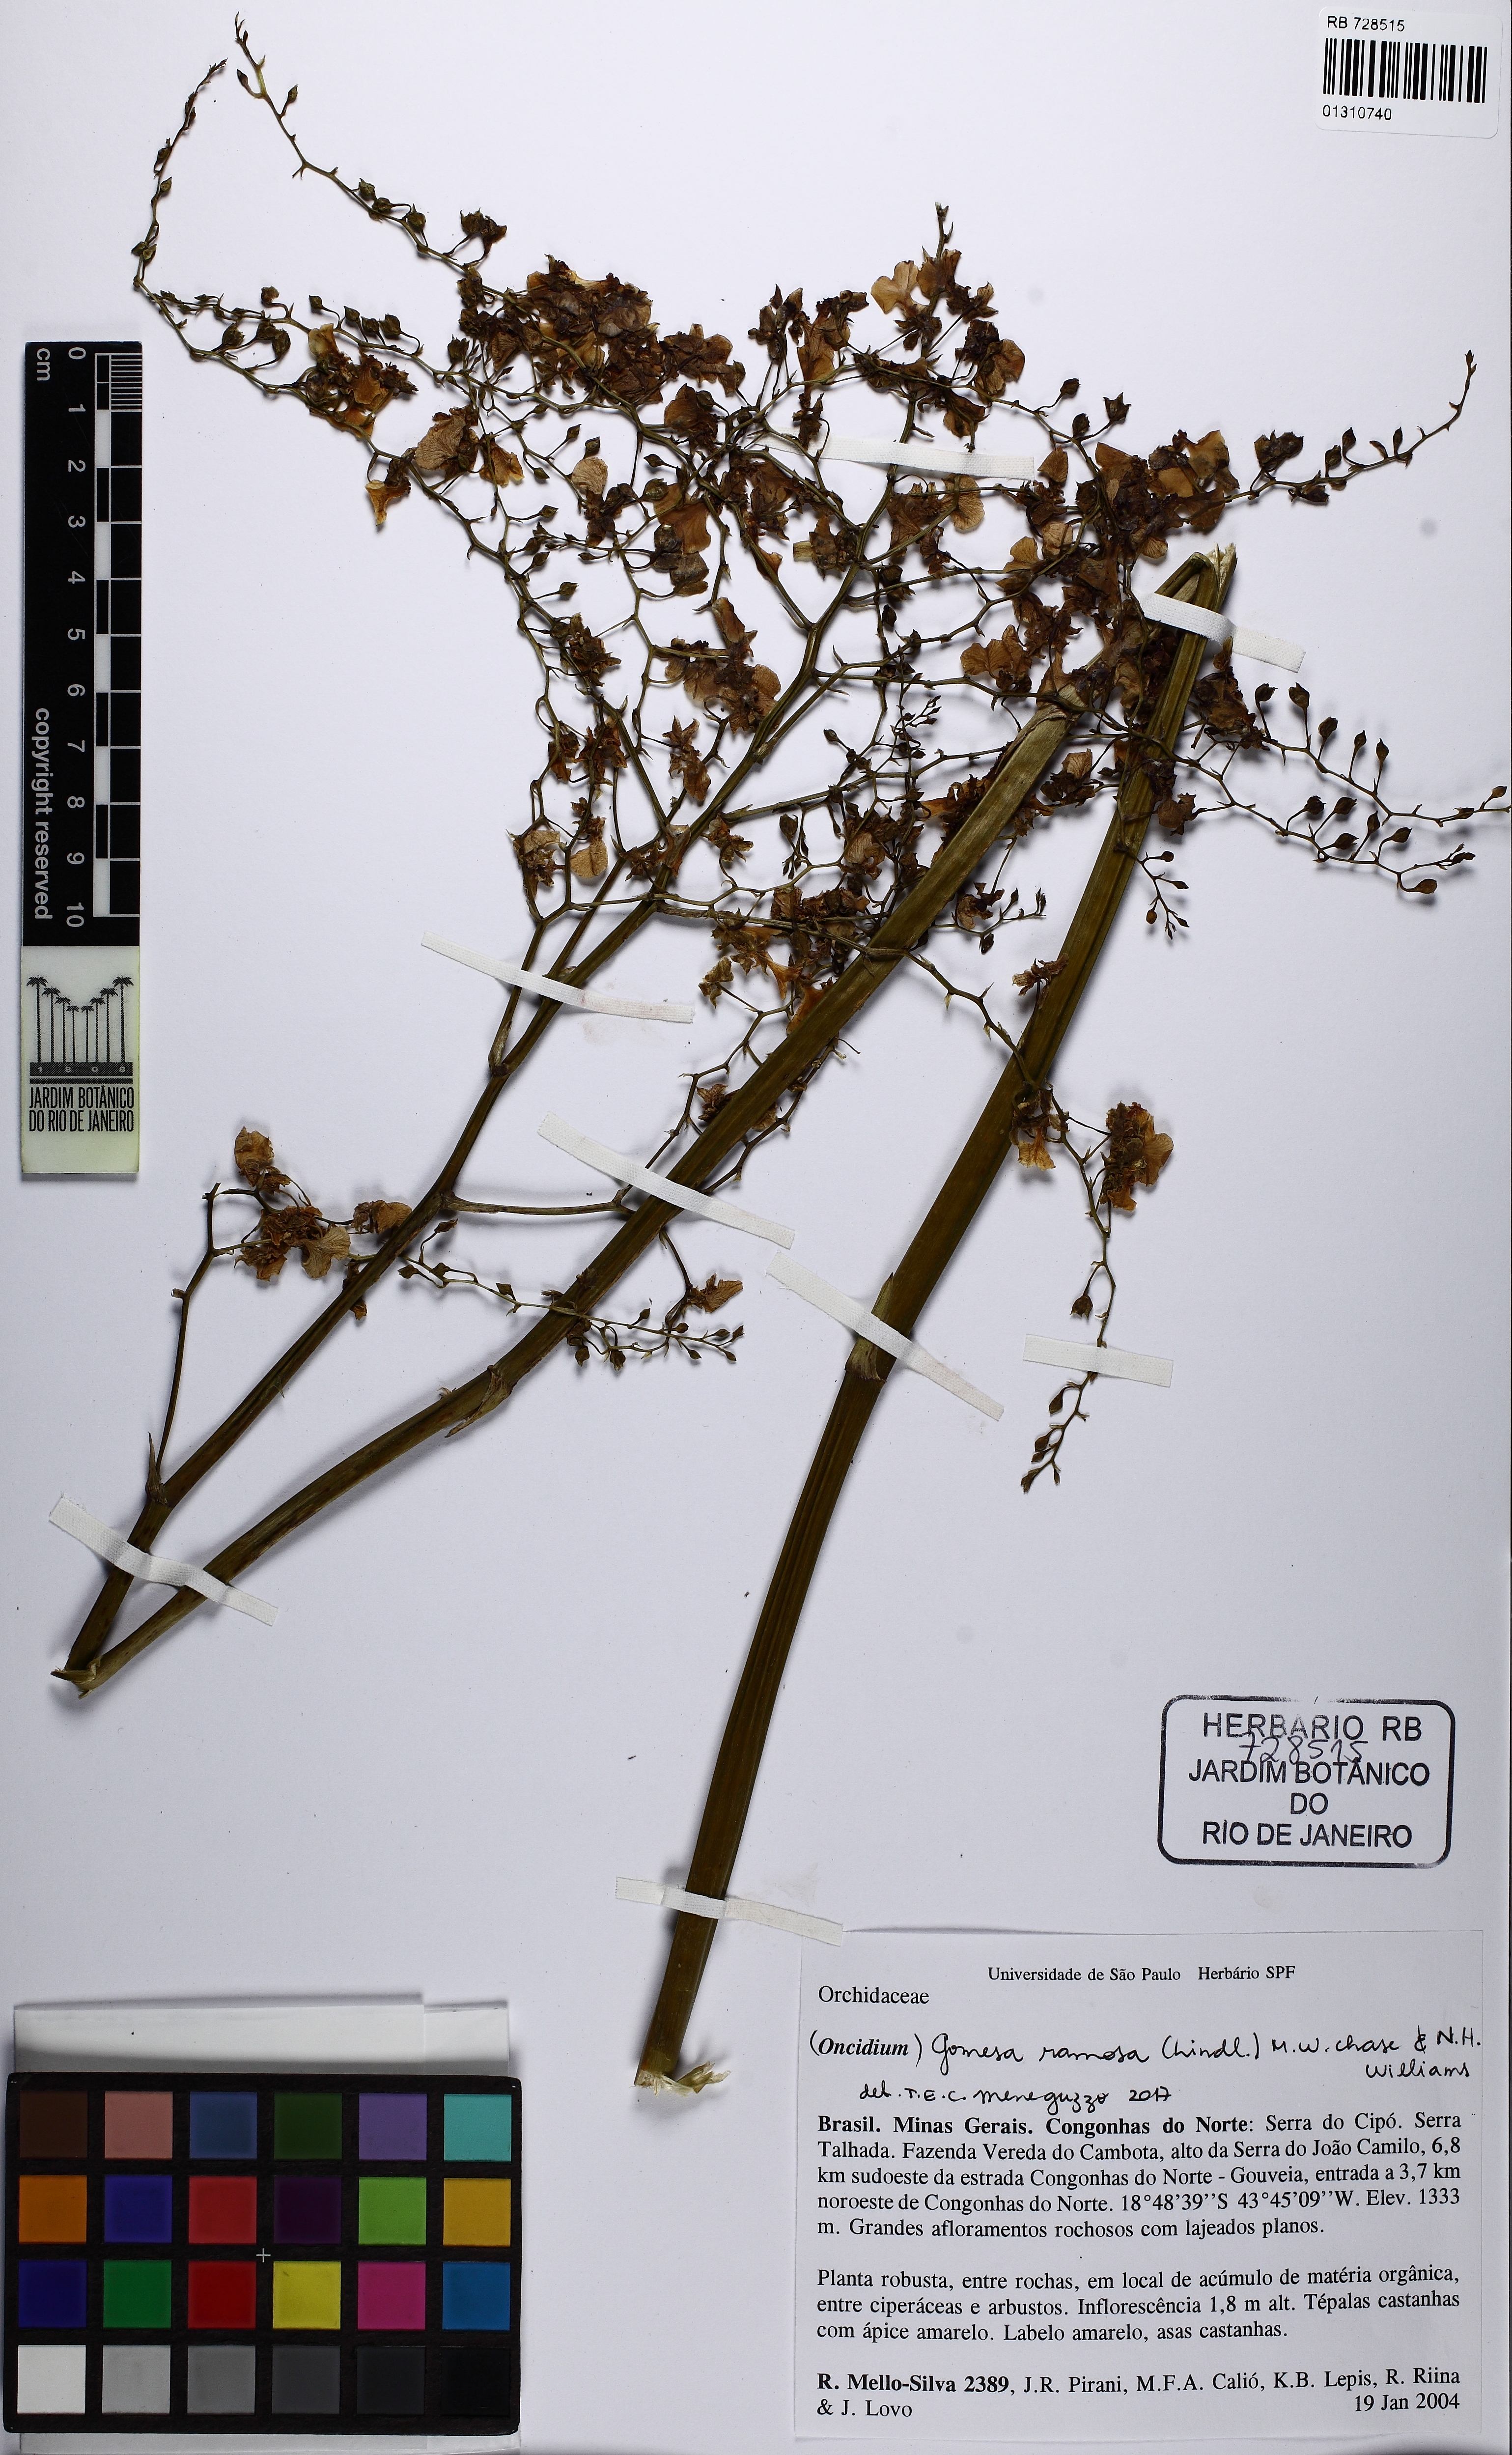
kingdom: Plantae
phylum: Tracheophyta
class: Liliopsida
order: Asparagales
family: Orchidaceae
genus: Gomesa
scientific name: Gomesa ramosa
